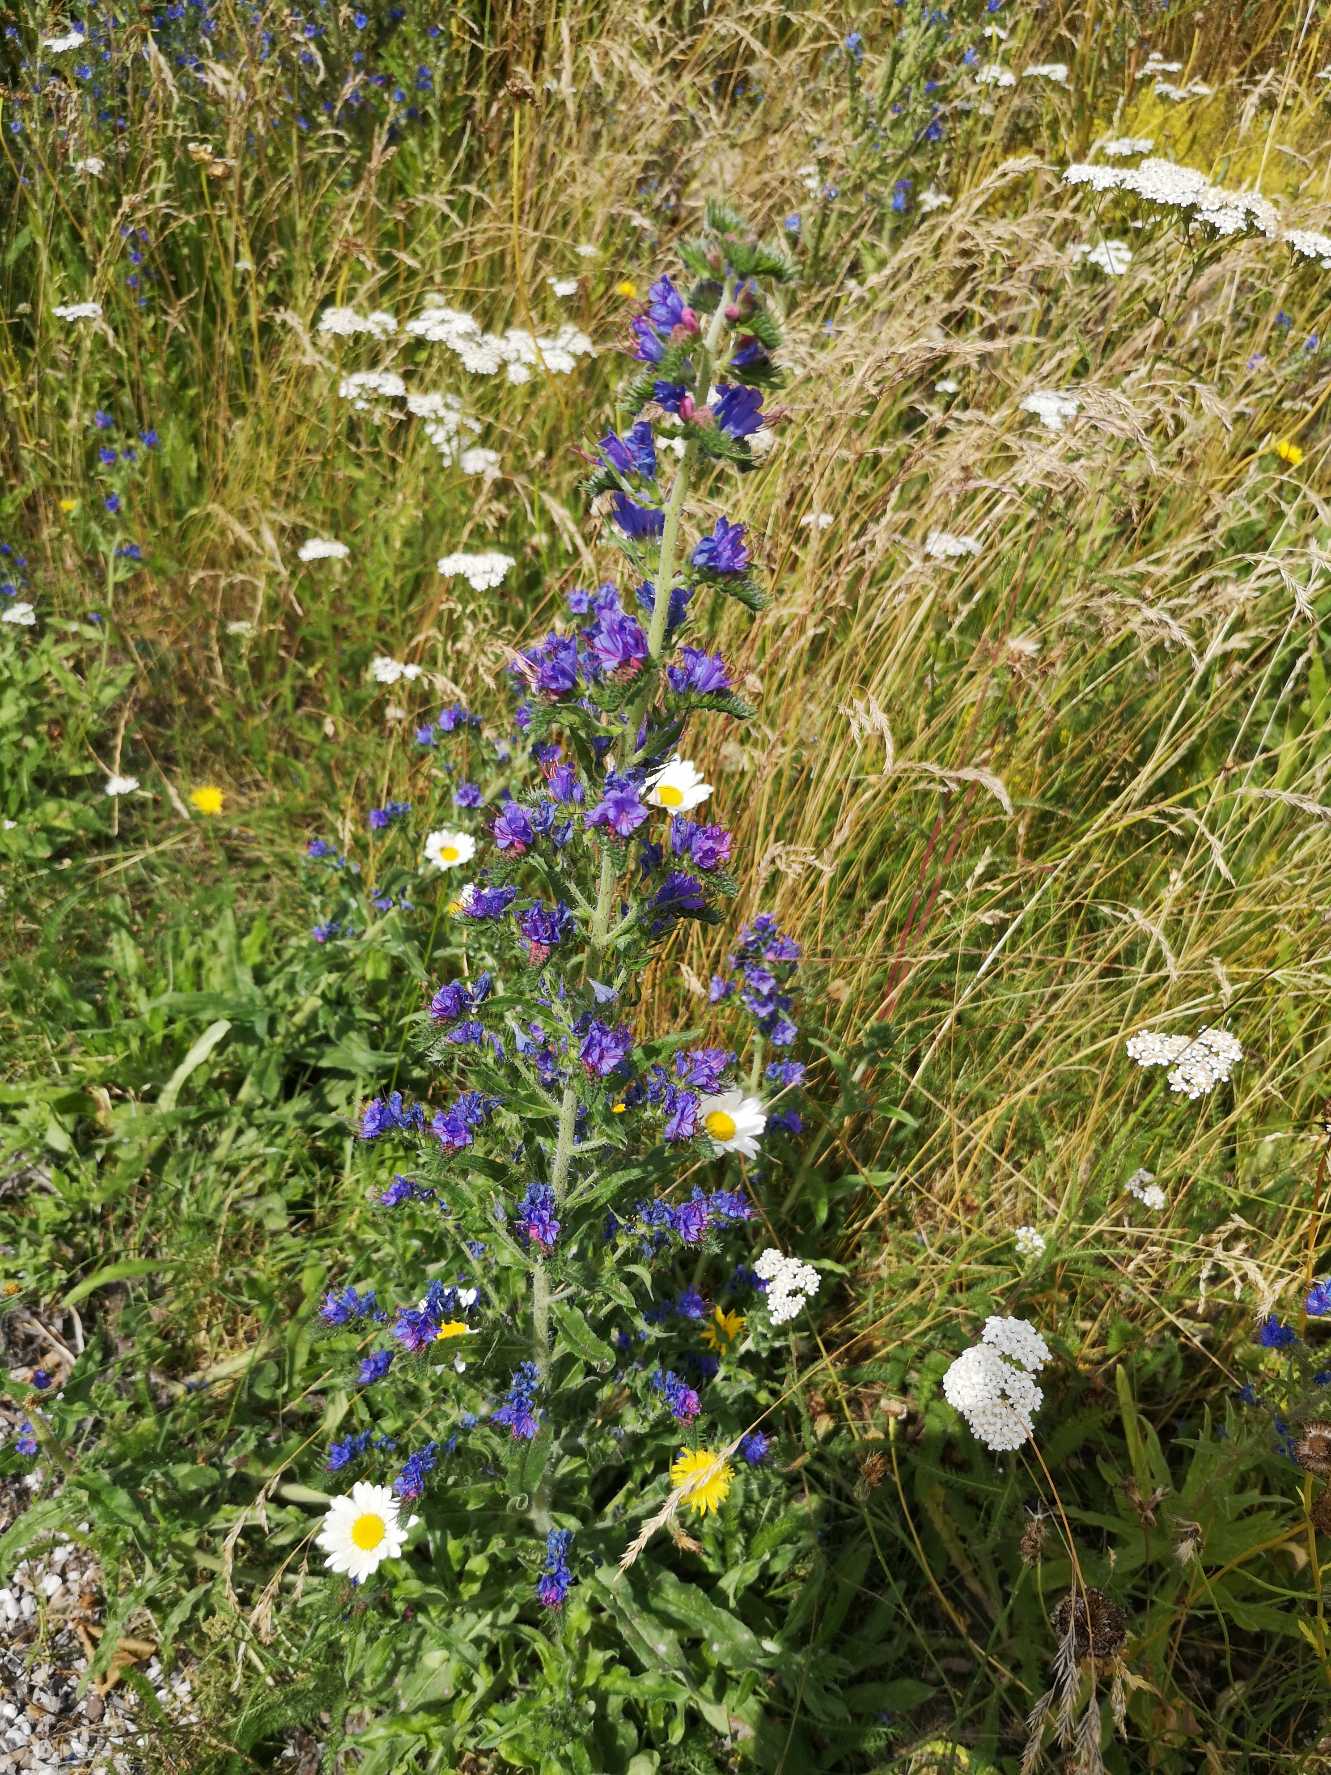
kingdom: Plantae
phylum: Tracheophyta
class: Magnoliopsida
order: Boraginales
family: Boraginaceae
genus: Echium
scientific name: Echium vulgare
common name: Slangehoved
